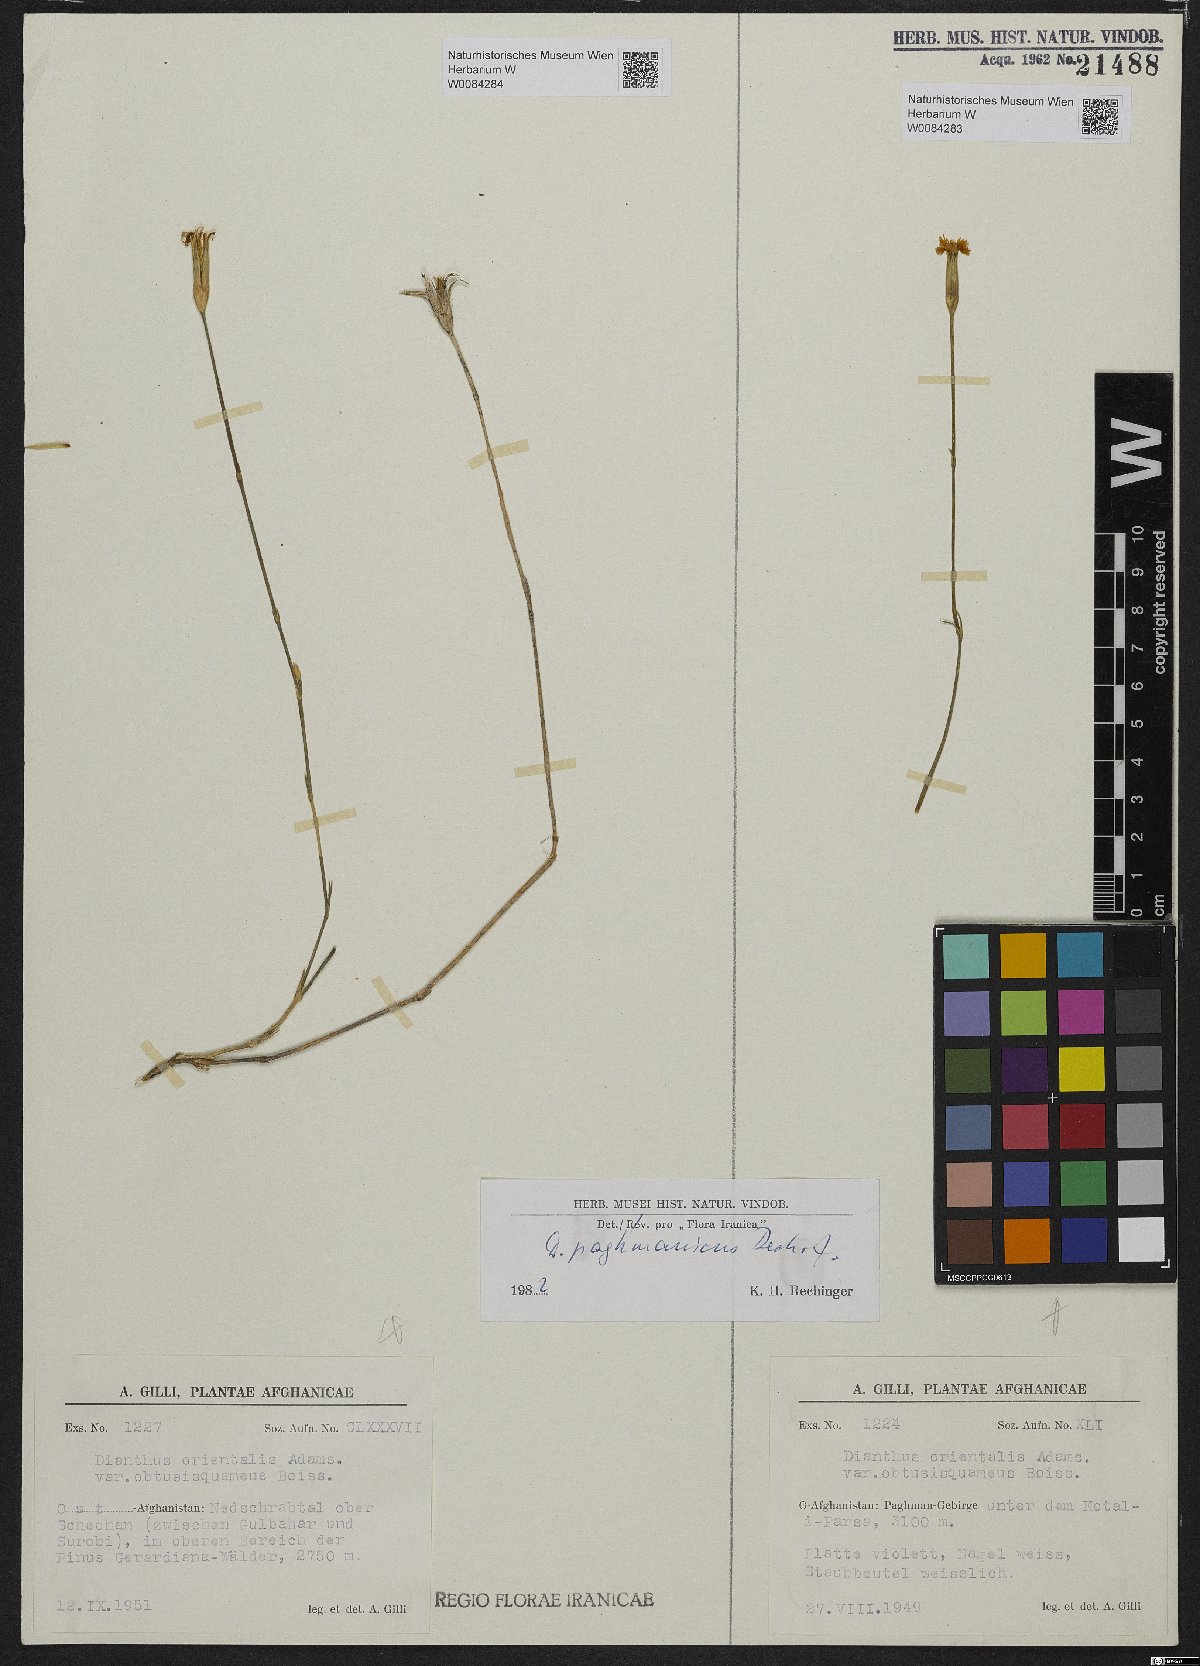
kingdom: Plantae
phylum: Tracheophyta
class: Magnoliopsida
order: Caryophyllales
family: Caryophyllaceae
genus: Dianthus
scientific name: Dianthus paghmanicus
